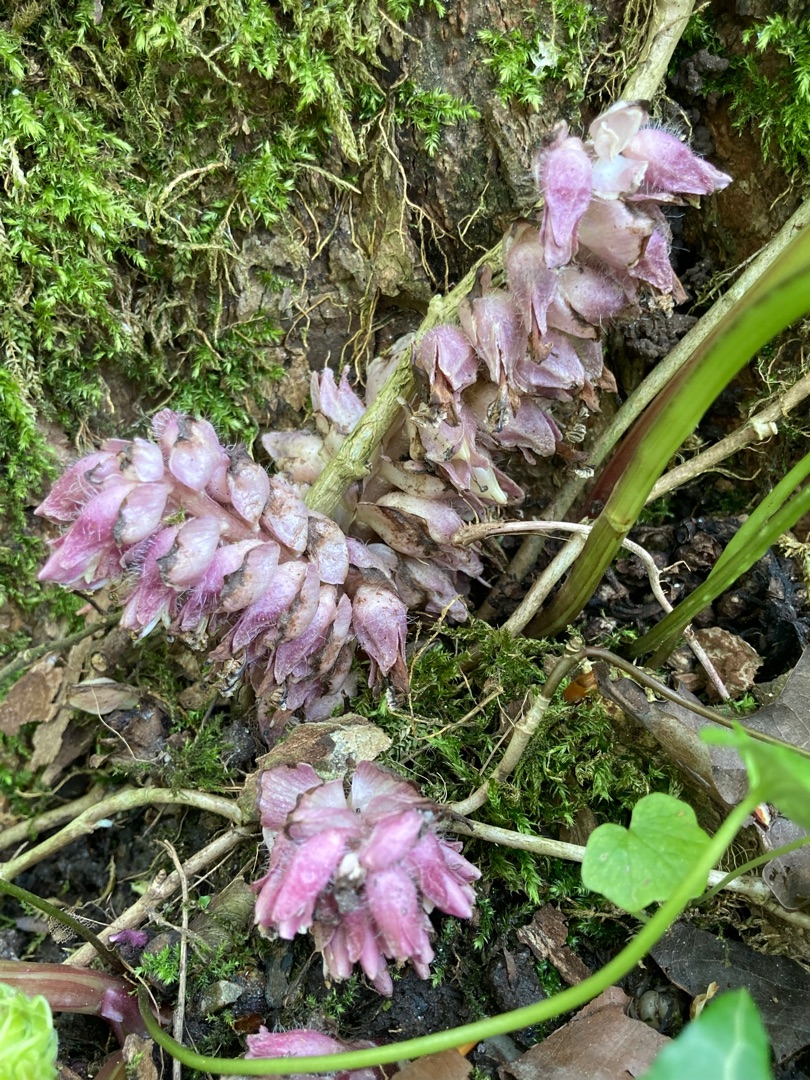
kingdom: Plantae
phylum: Tracheophyta
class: Magnoliopsida
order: Lamiales
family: Orobanchaceae
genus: Lathraea
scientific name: Lathraea squamaria
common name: Skælrod
